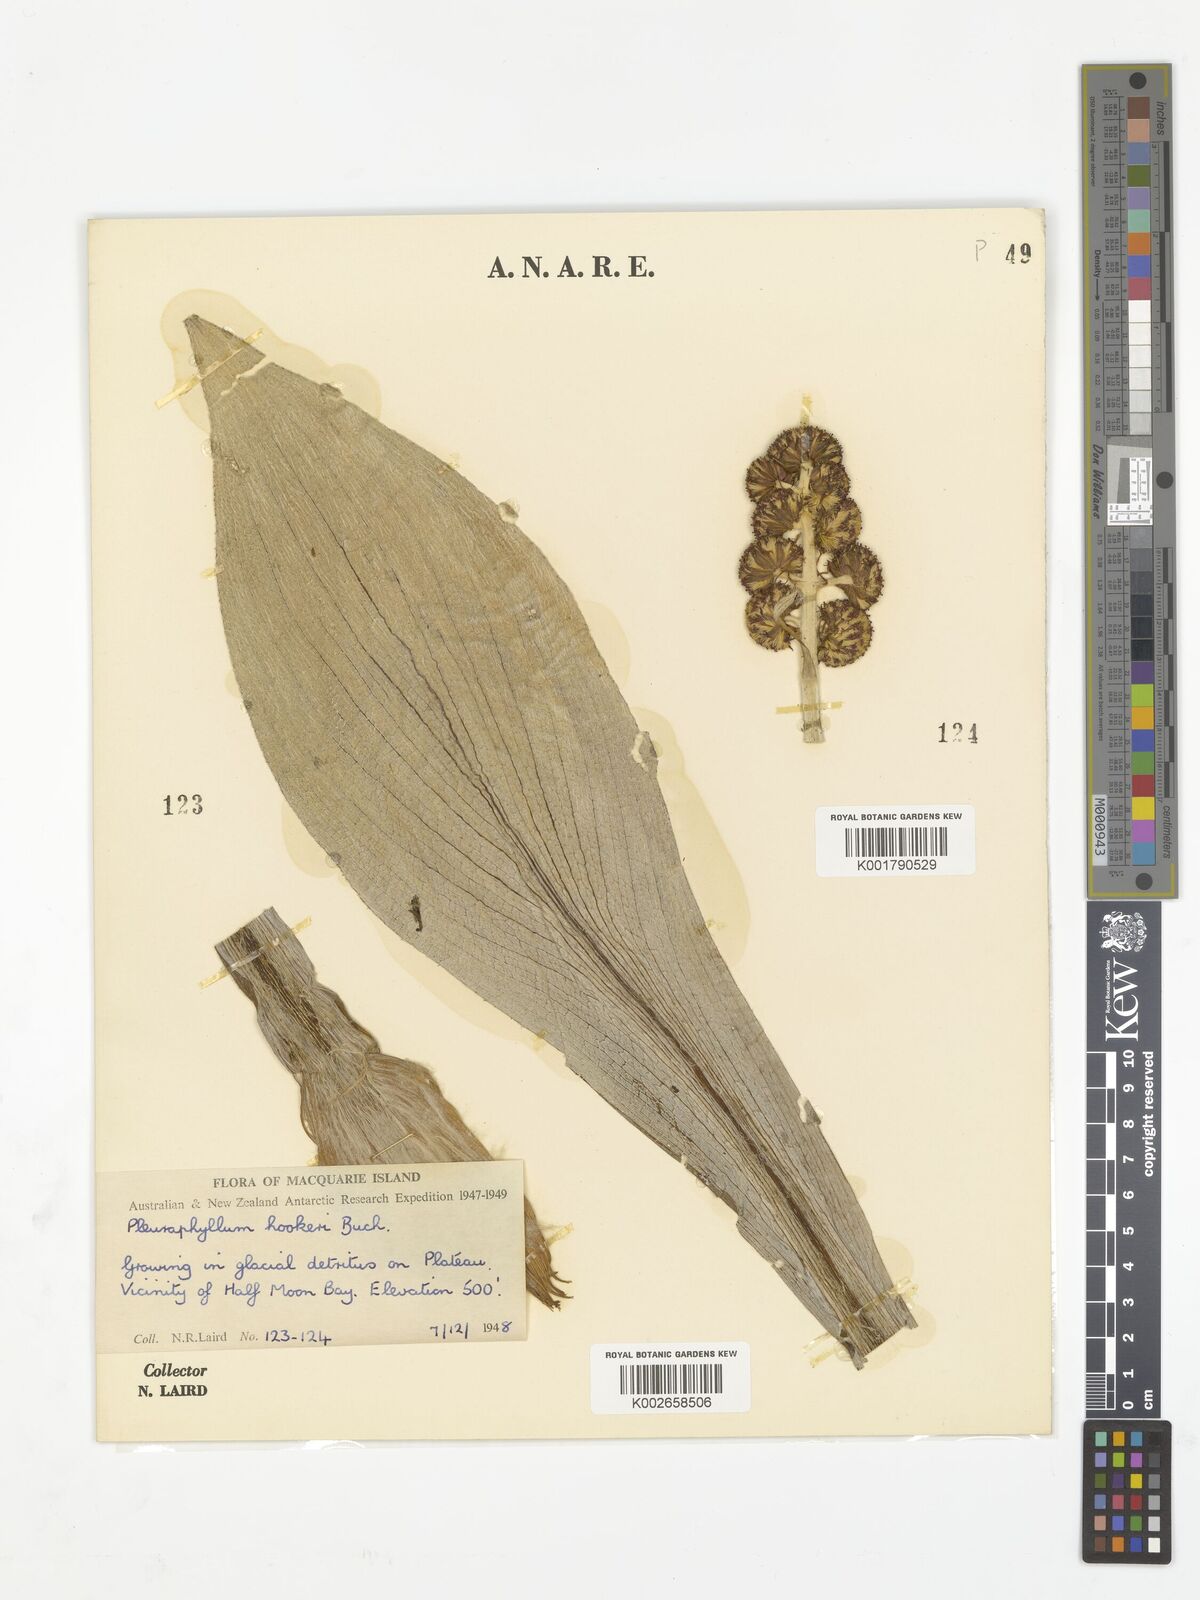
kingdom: Plantae
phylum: Tracheophyta
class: Magnoliopsida
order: Asterales
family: Asteraceae
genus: Pleurophyllum
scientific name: Pleurophyllum hookeri
